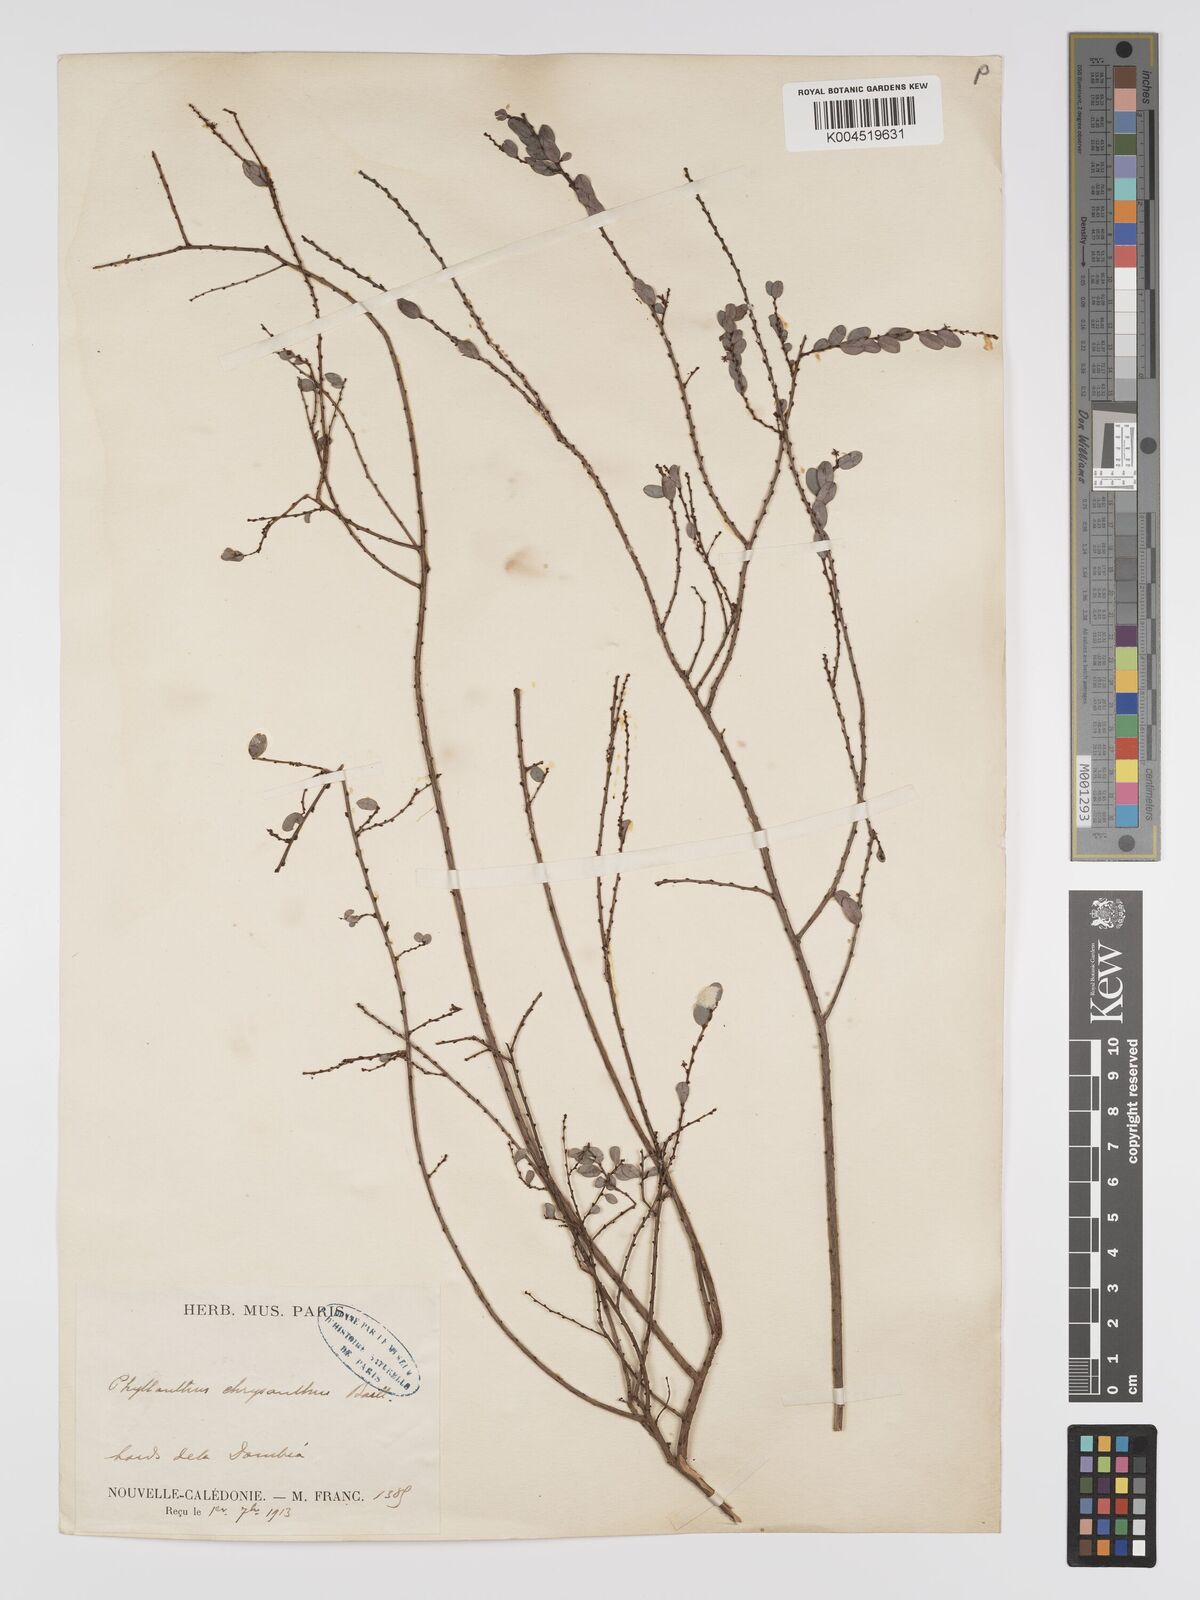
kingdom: Plantae
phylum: Tracheophyta
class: Magnoliopsida
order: Malpighiales
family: Phyllanthaceae
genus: Phyllanthus
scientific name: Phyllanthus chrysanthus
